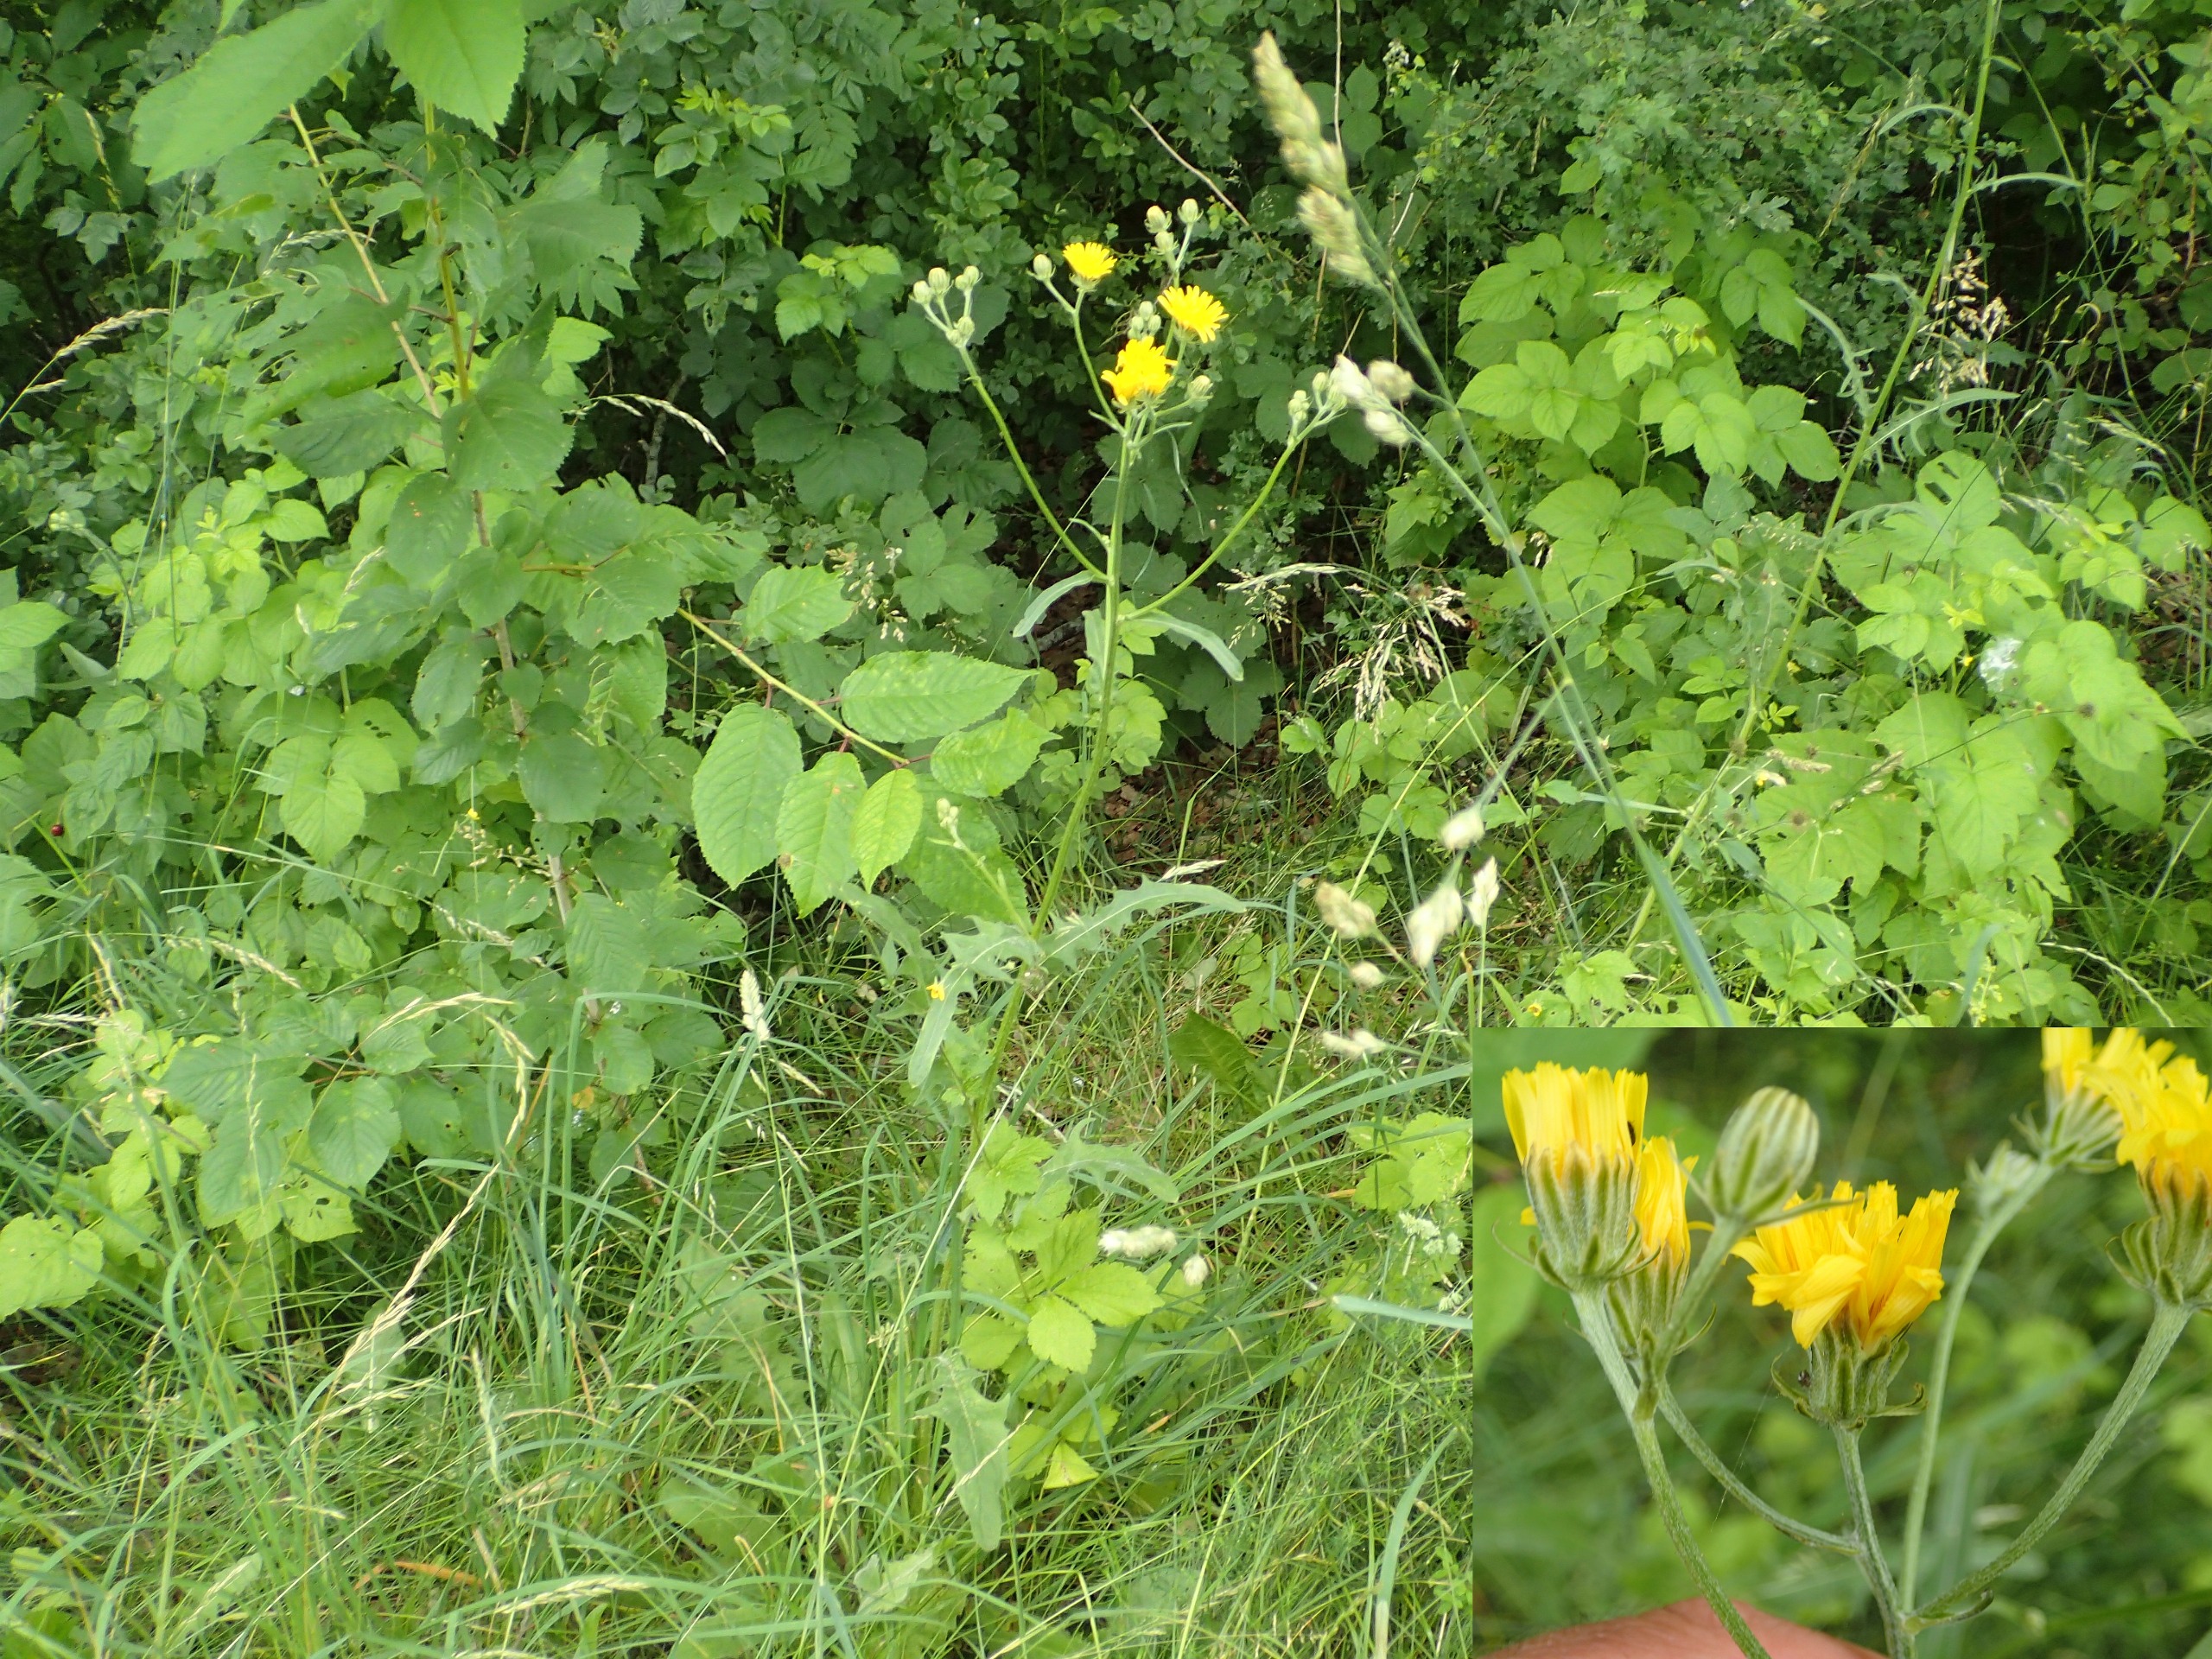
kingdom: Plantae
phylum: Tracheophyta
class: Magnoliopsida
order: Asterales
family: Asteraceae
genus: Crepis
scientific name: Crepis biennis
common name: Toårig høgeskæg
